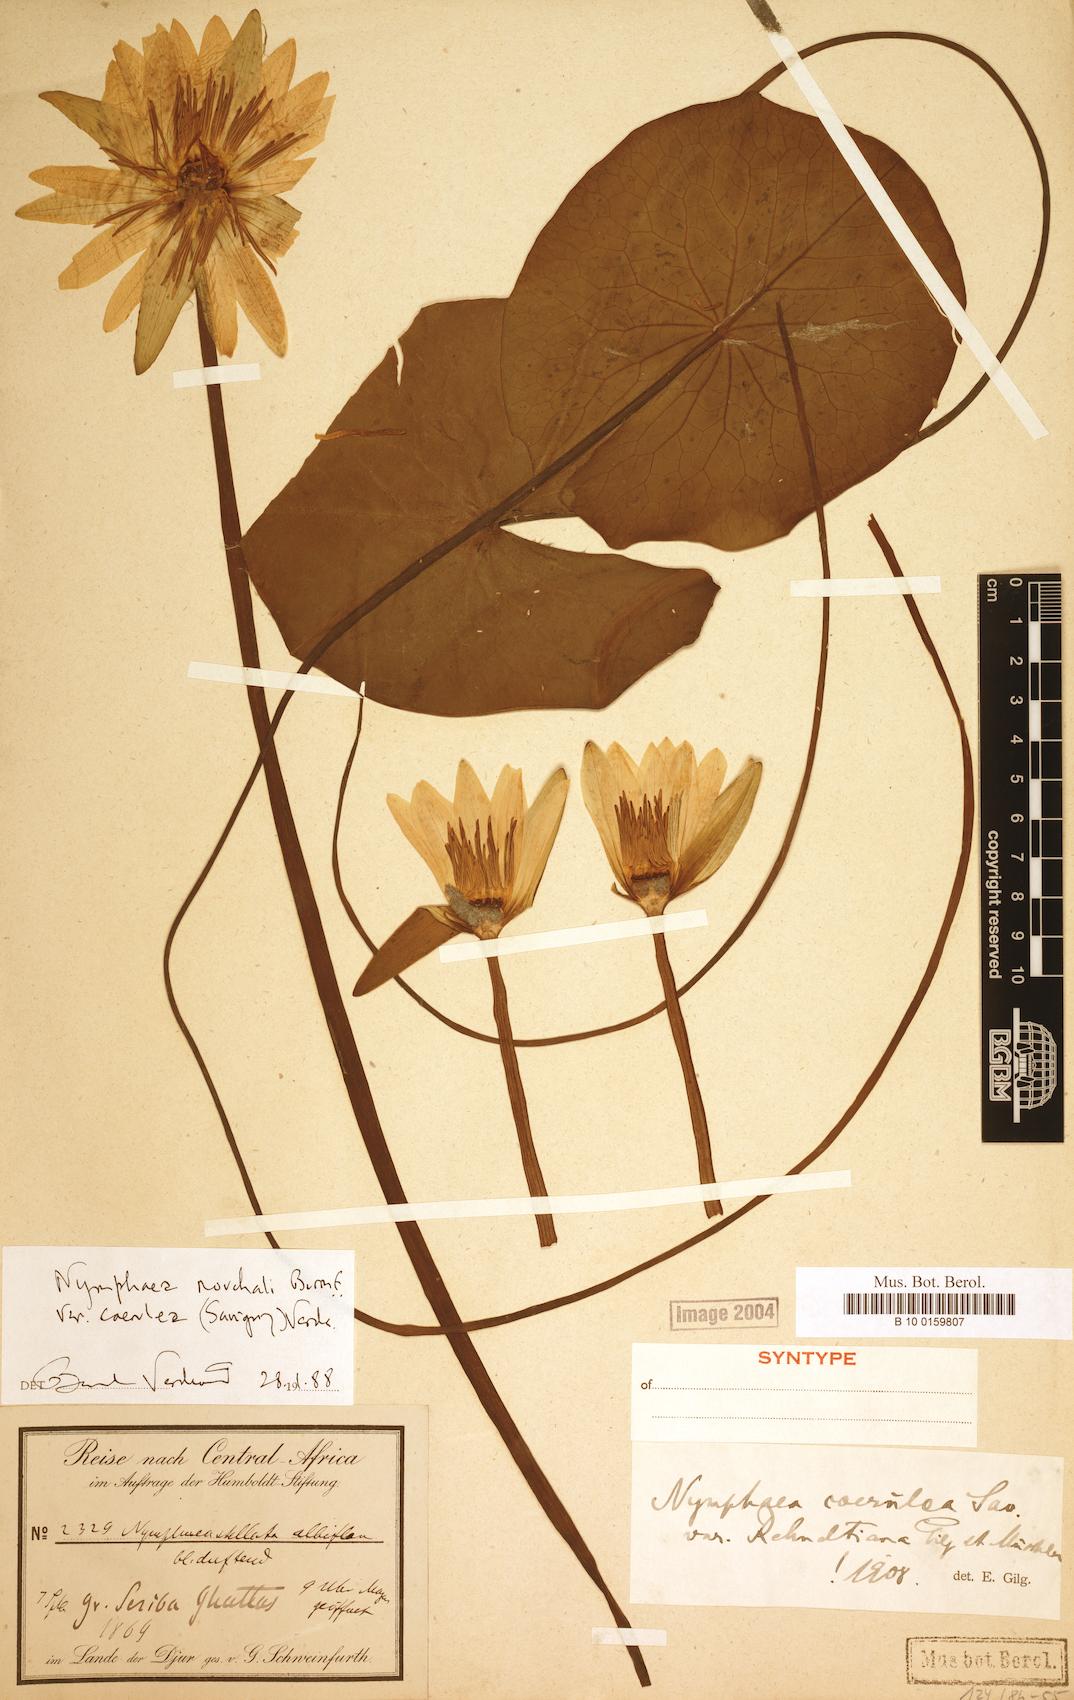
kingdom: Plantae
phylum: Tracheophyta
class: Magnoliopsida
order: Nymphaeales
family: Nymphaeaceae
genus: Nymphaea
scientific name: Nymphaea nouchali
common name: Blue lotus
